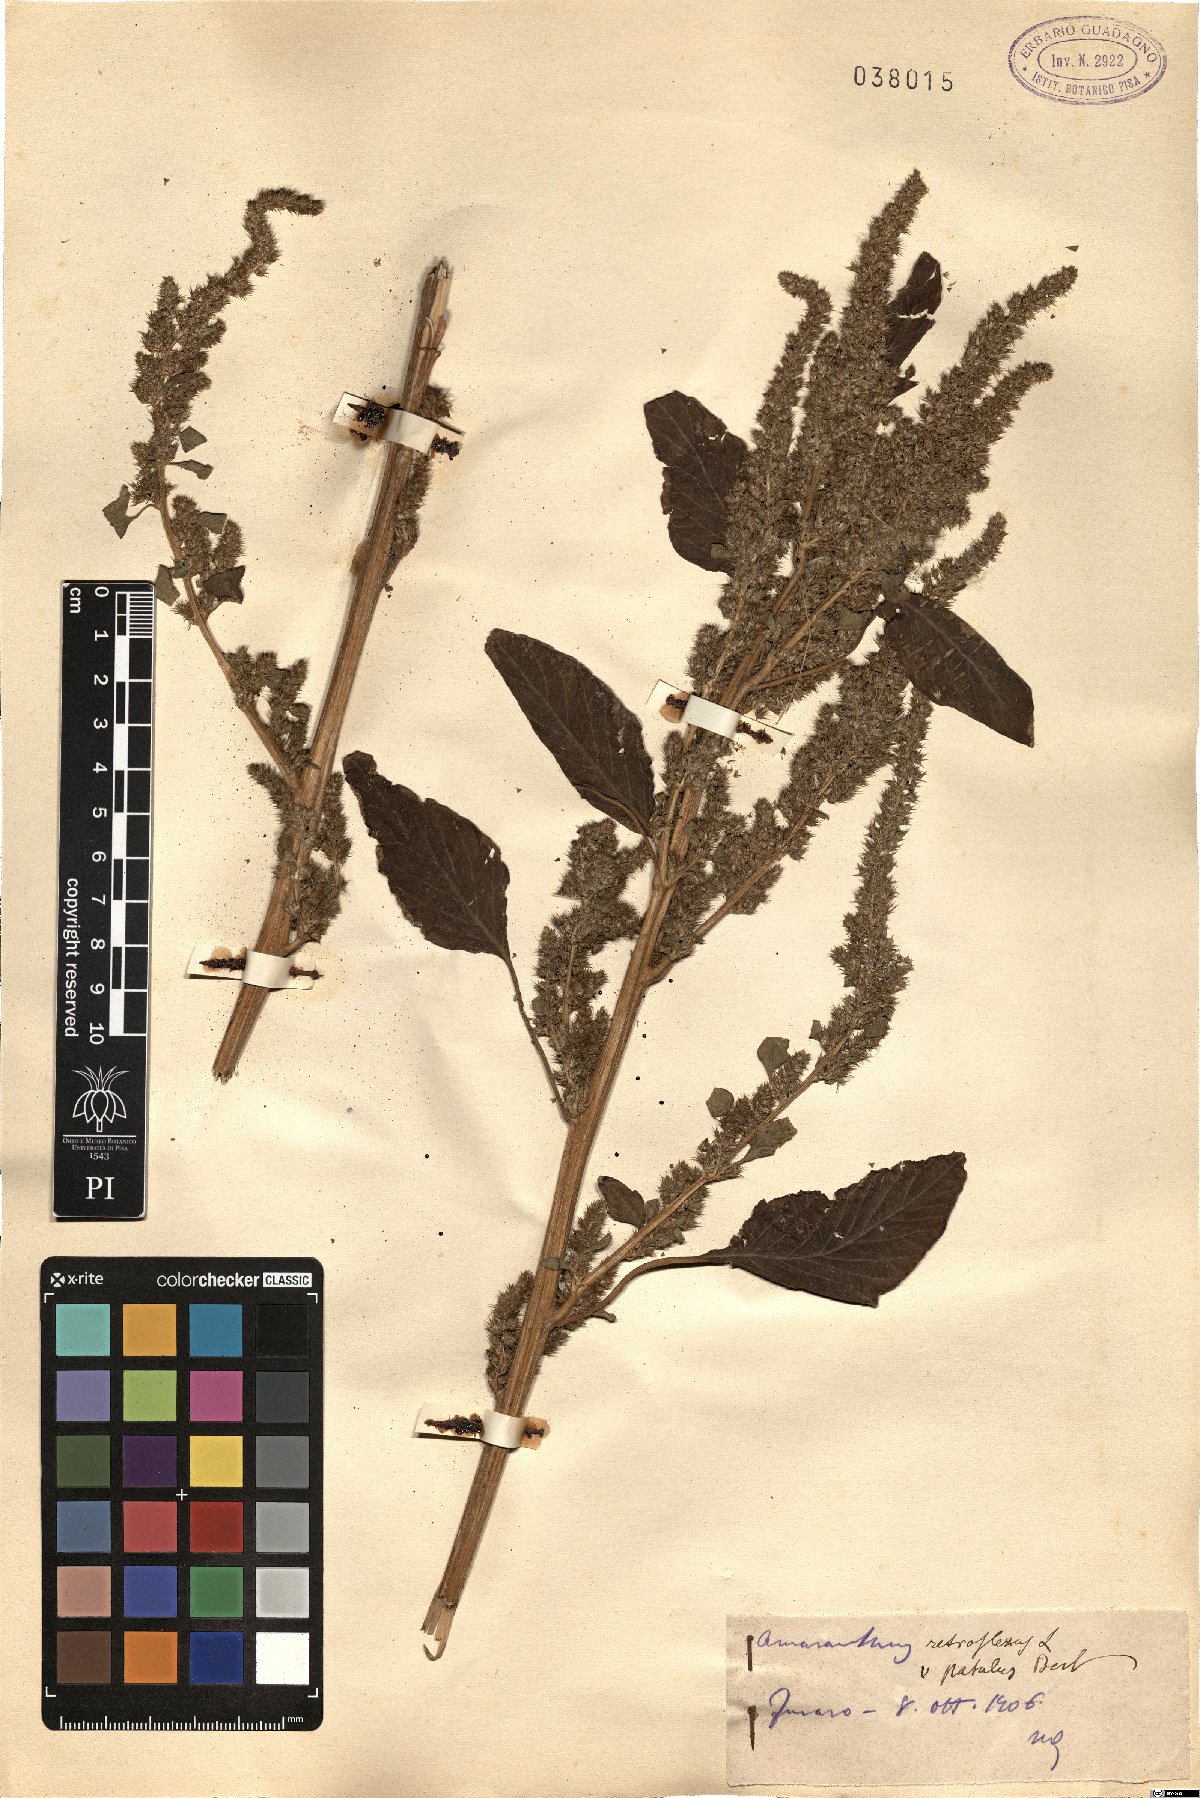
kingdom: Plantae
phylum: Tracheophyta
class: Magnoliopsida
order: Caryophyllales
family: Amaranthaceae
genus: Amaranthus
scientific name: Amaranthus retroflexus
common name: Redroot amaranth
